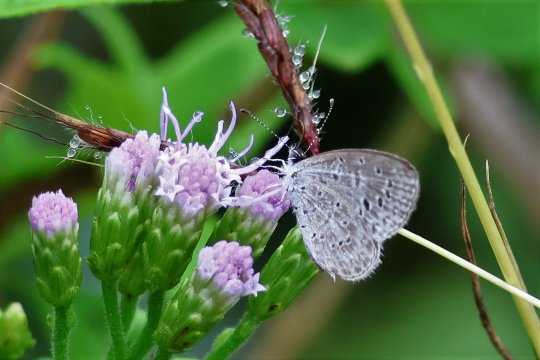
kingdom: Animalia
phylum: Arthropoda
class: Insecta
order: Lepidoptera
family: Lycaenidae
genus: Lycaena
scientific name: Lycaena cyna
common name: Cyna Blue
